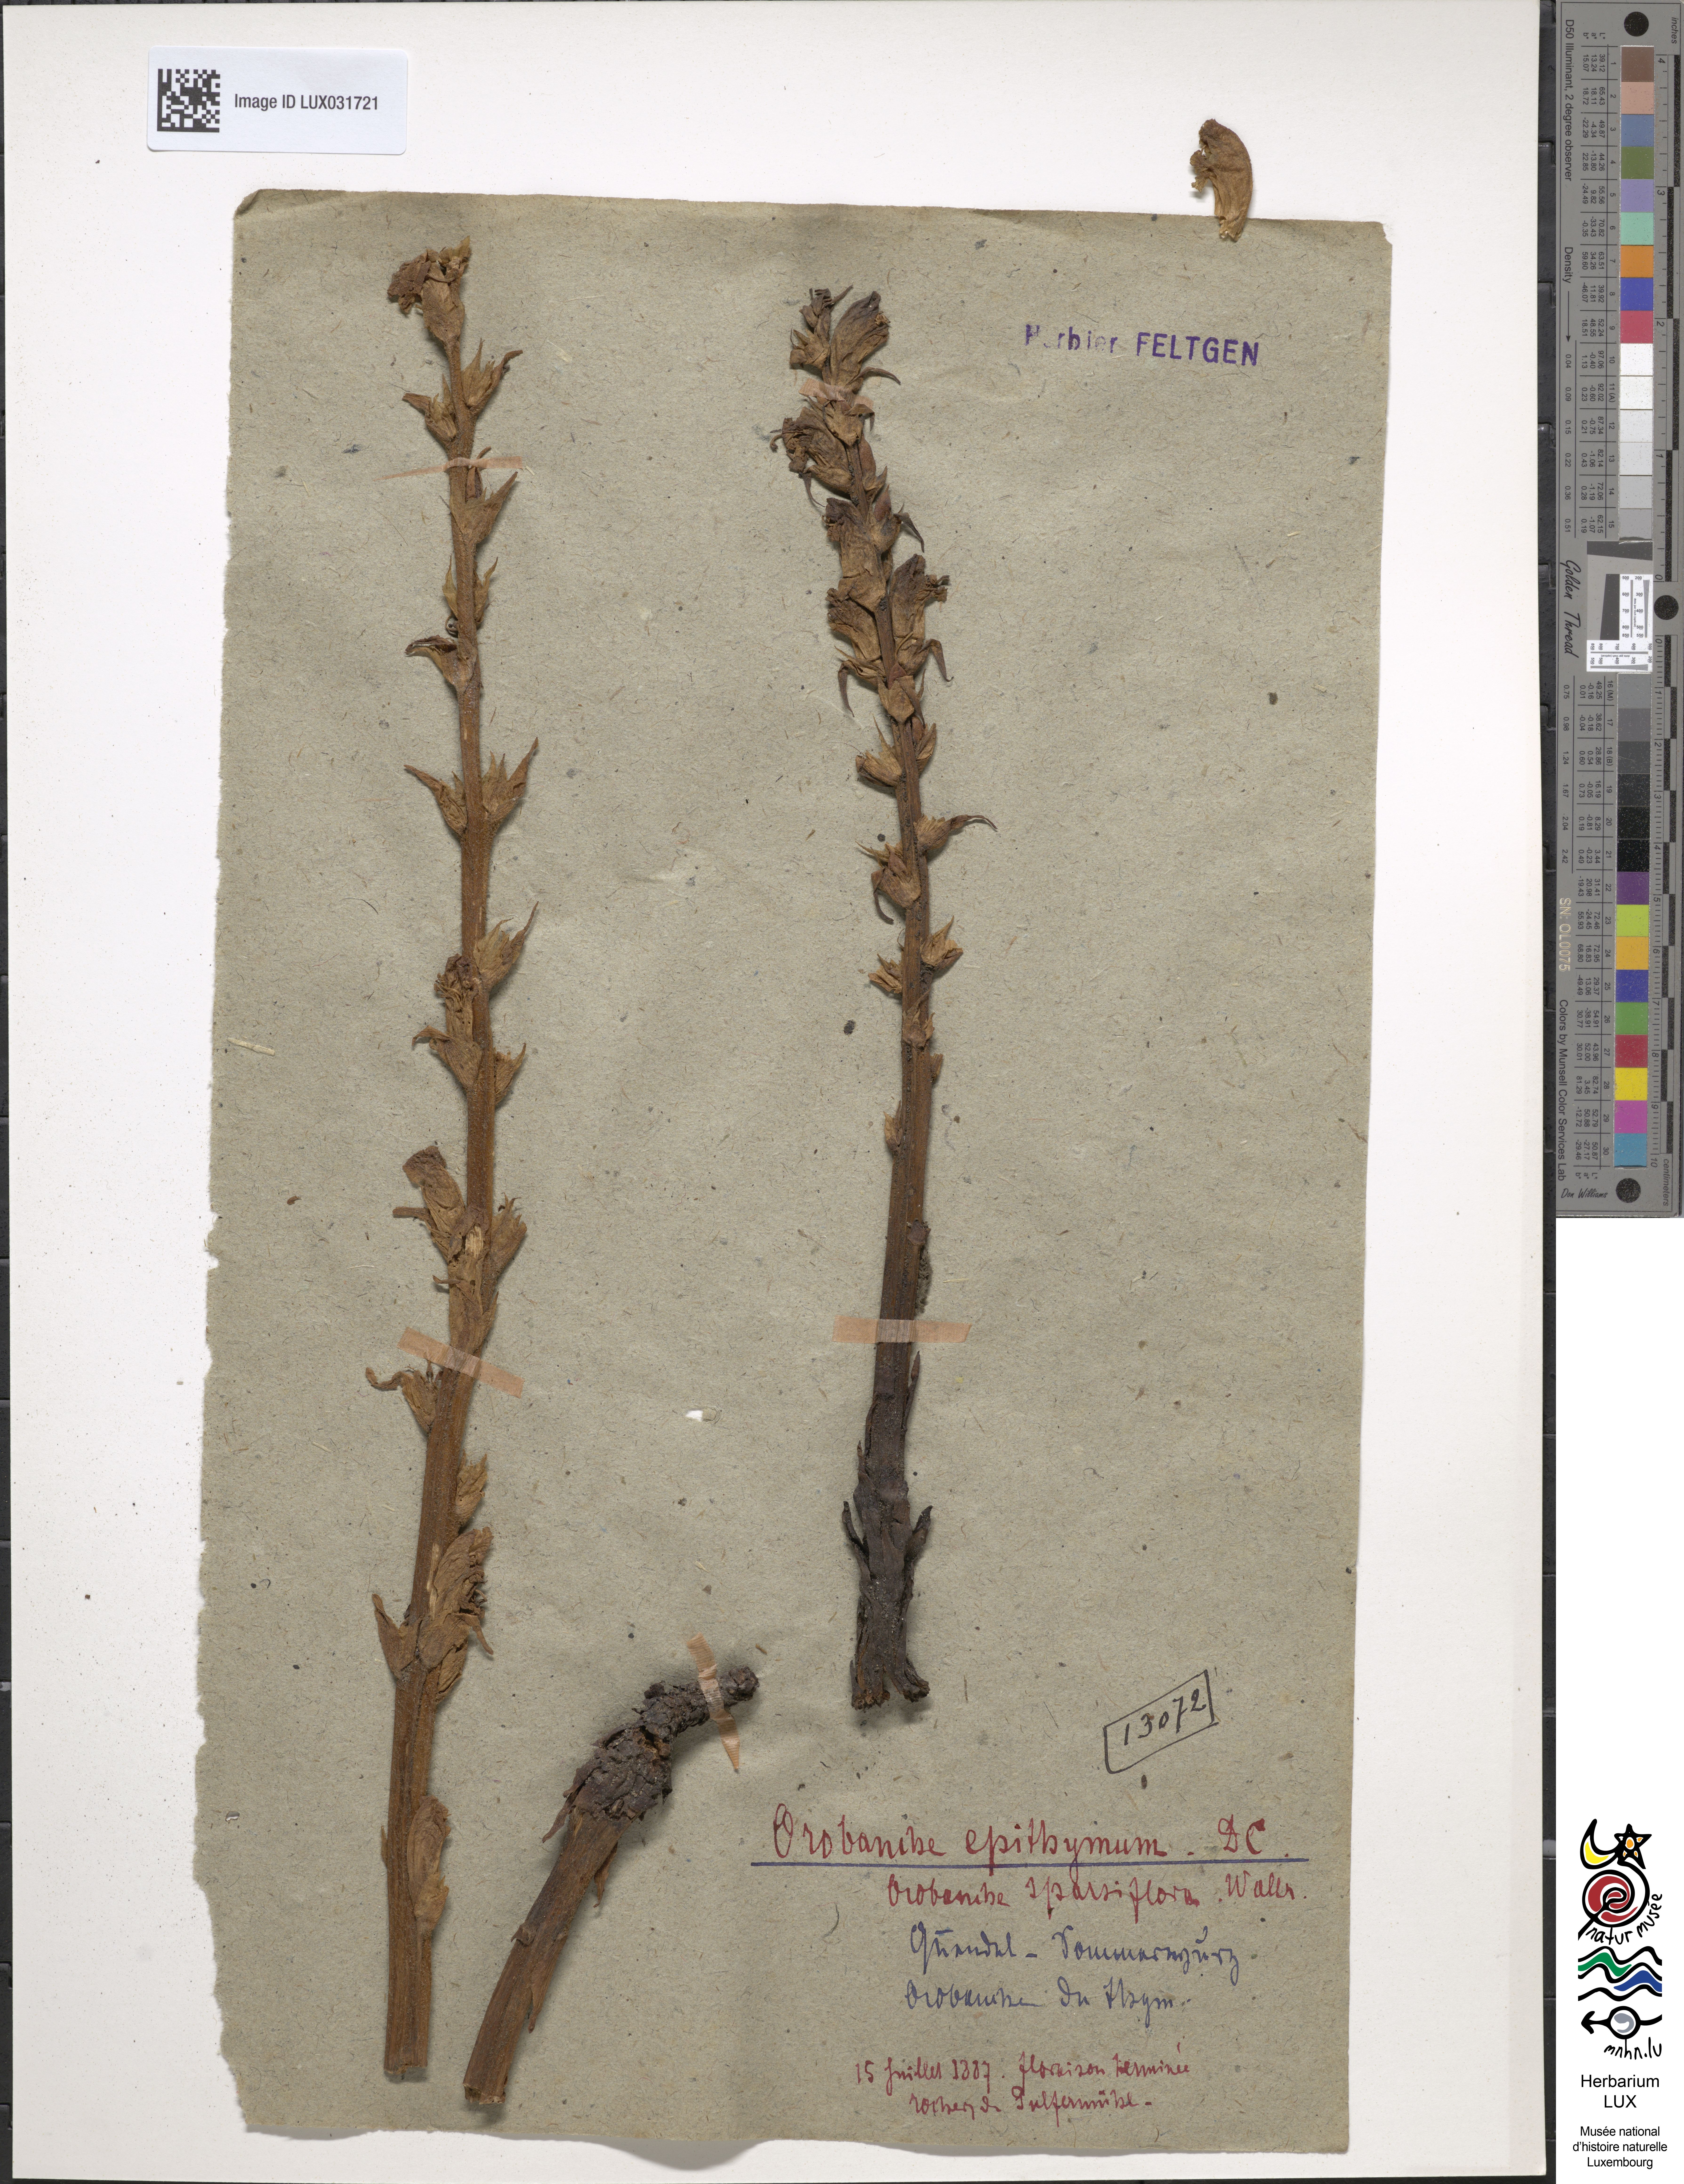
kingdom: Plantae
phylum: Tracheophyta
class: Magnoliopsida
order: Lamiales
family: Orobanchaceae
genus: Orobanche
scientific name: Orobanche alba
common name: Thyme broomrape
